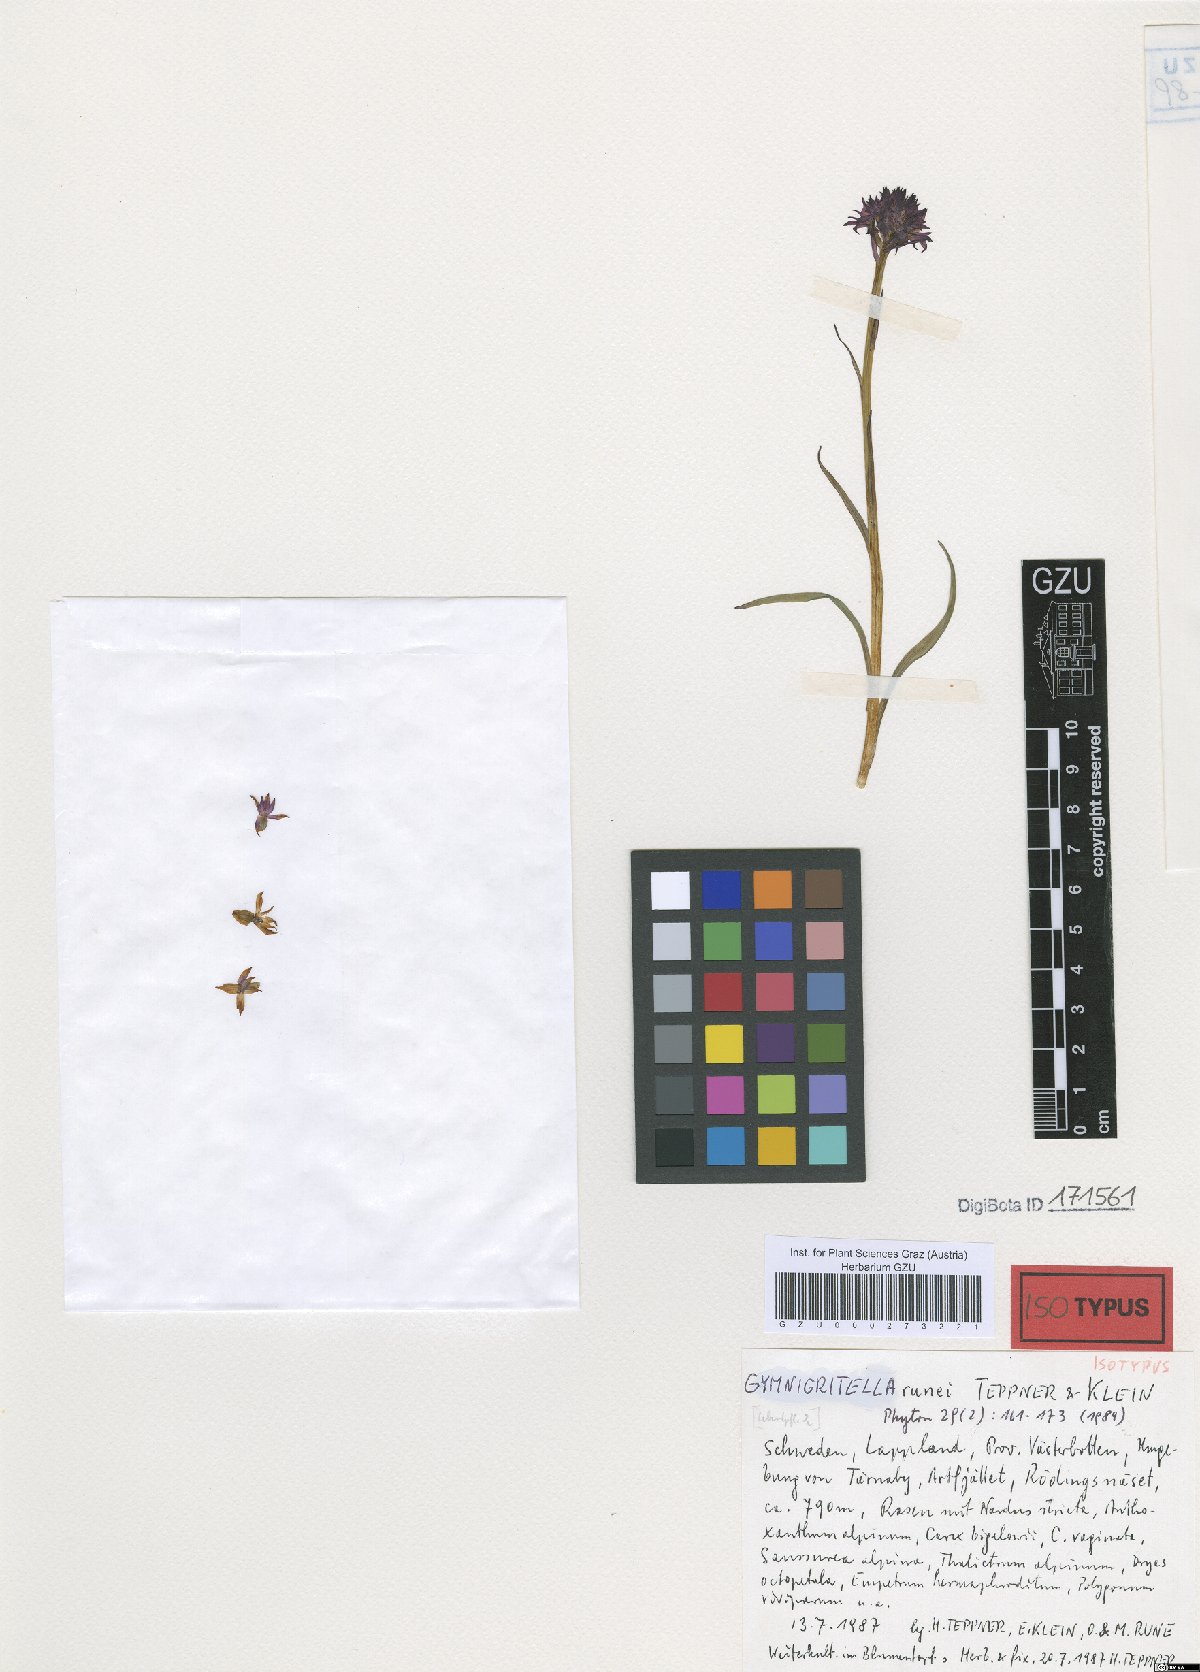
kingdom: Plantae
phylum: Tracheophyta
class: Liliopsida
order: Asparagales
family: Orchidaceae
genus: Gymnadenia
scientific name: Gymnadenia runei
